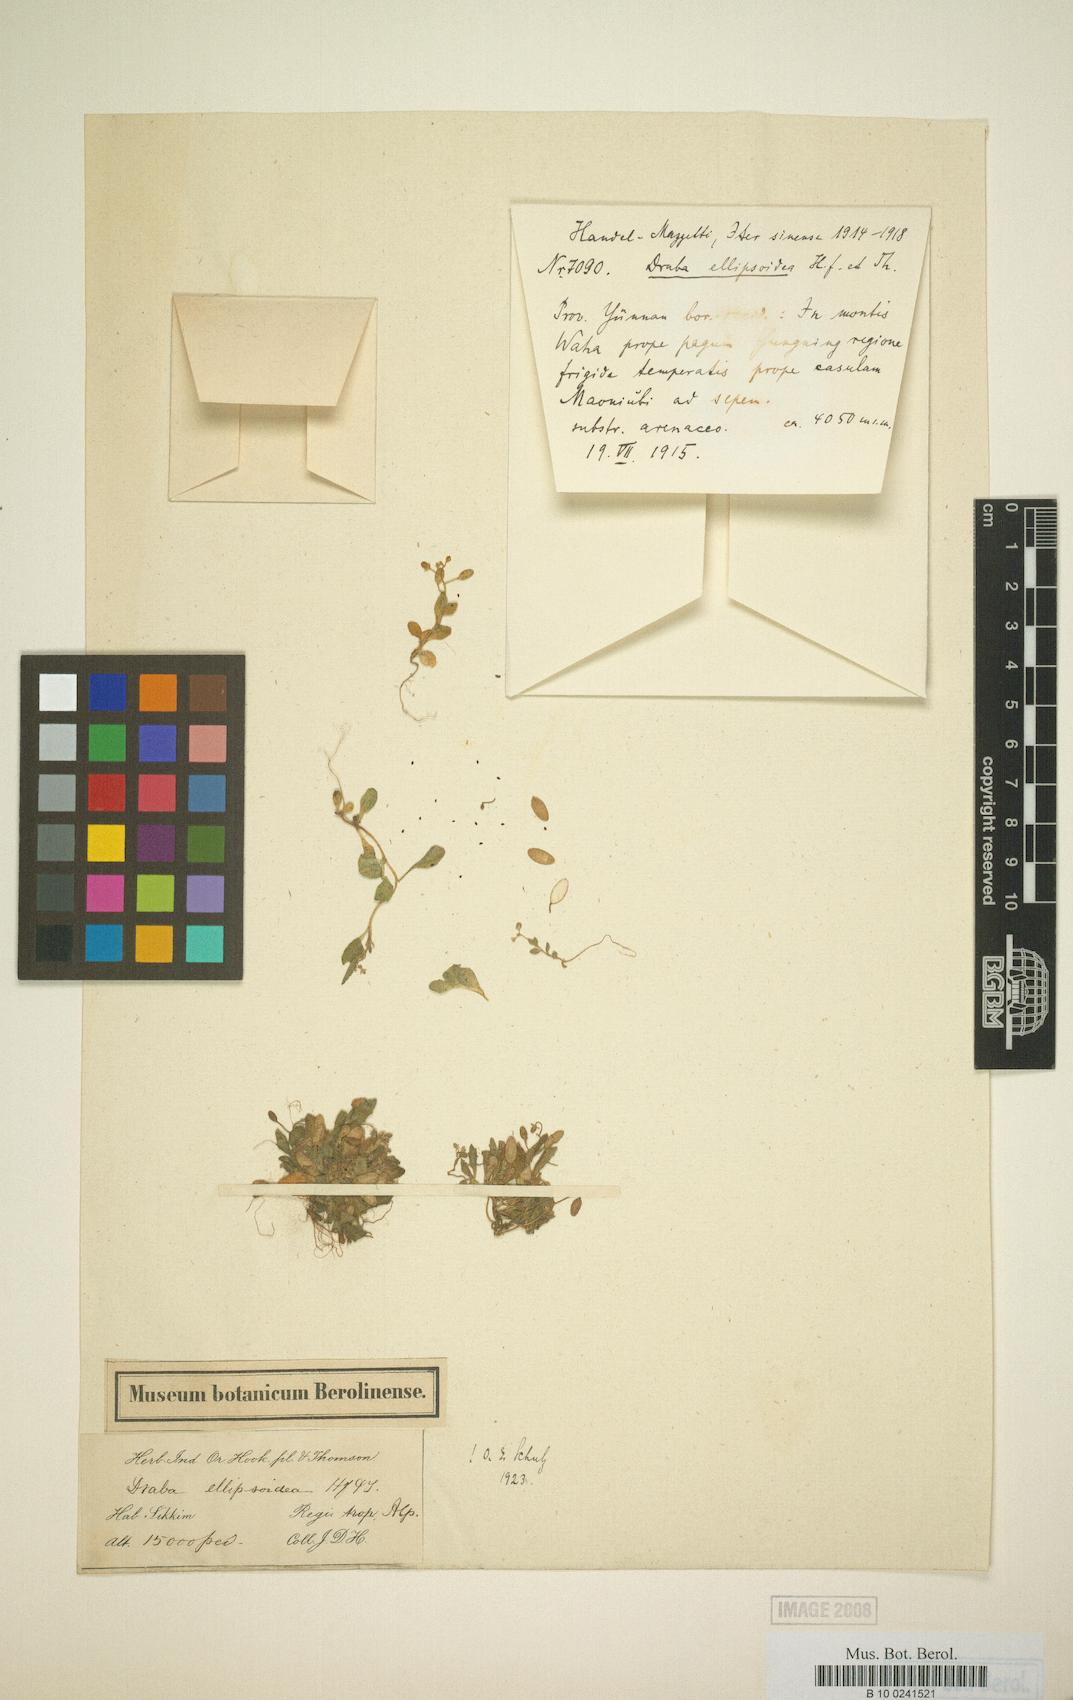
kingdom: Plantae
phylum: Tracheophyta
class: Magnoliopsida
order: Brassicales
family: Brassicaceae
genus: Draba
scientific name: Draba ellipsoidea
